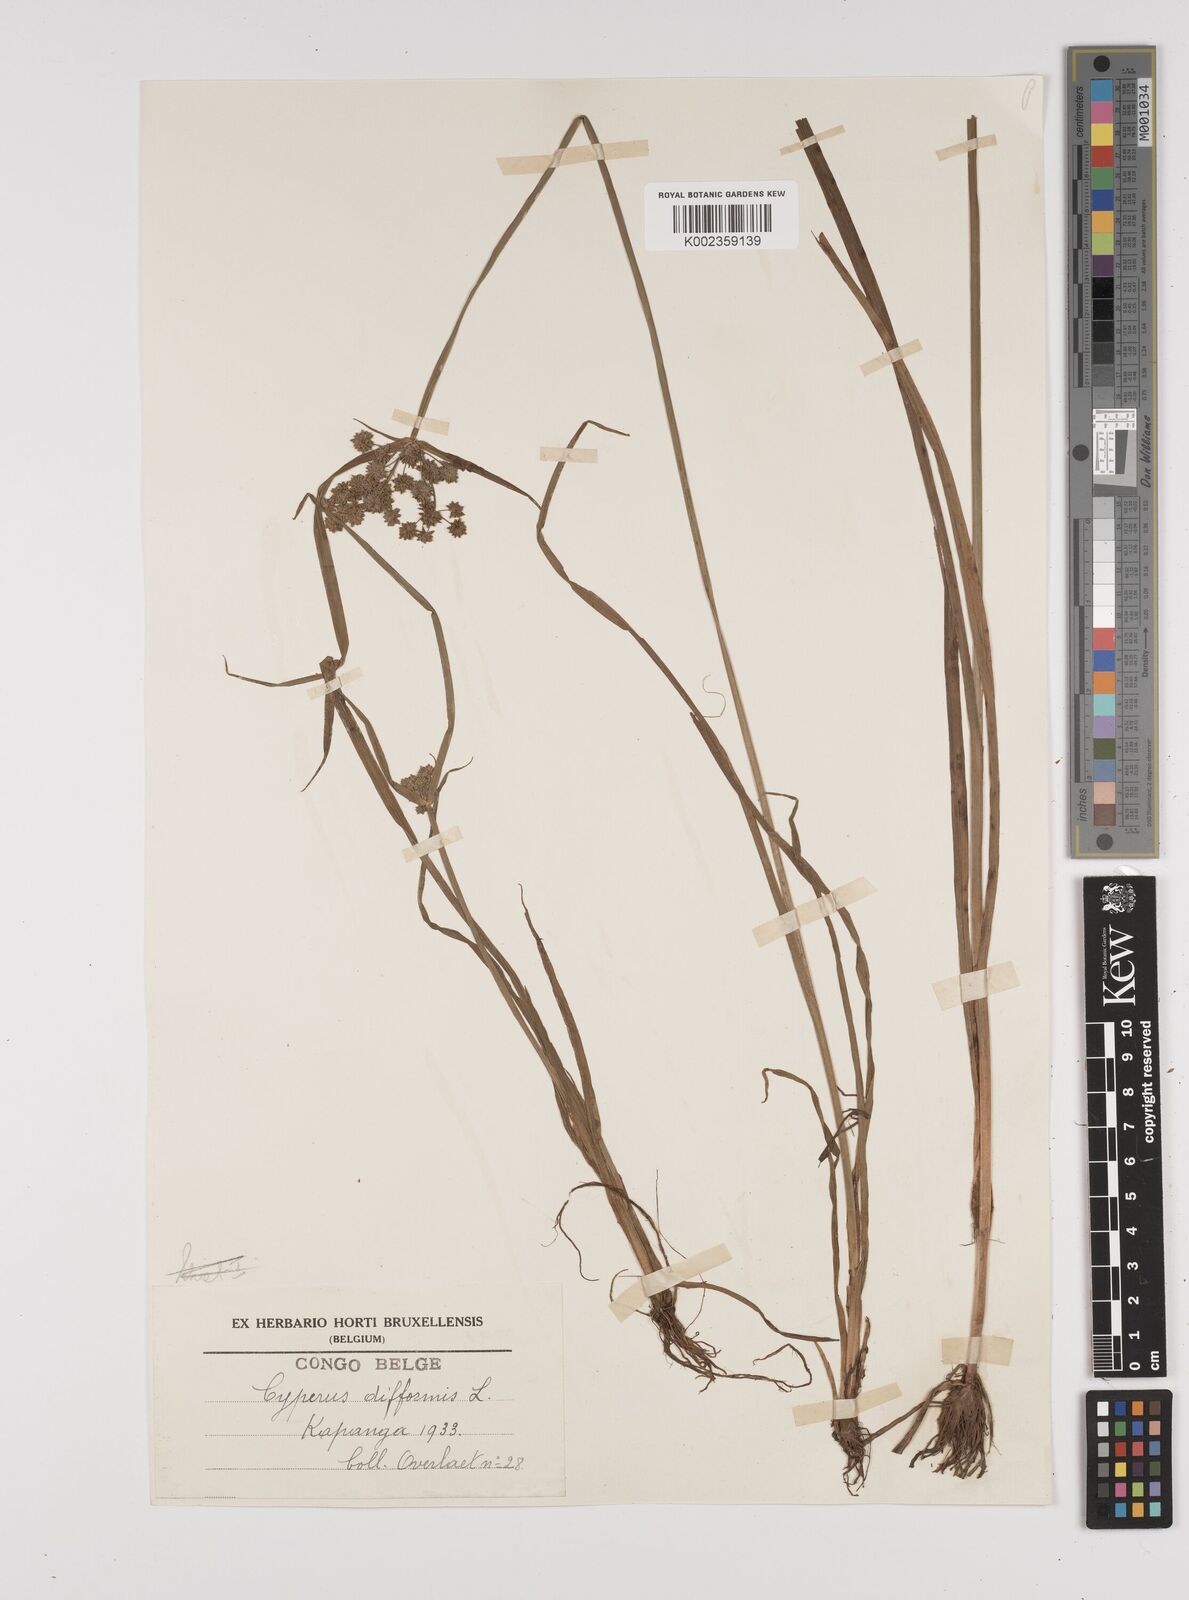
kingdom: Plantae
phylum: Tracheophyta
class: Liliopsida
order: Poales
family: Cyperaceae
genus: Cyperus
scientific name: Cyperus difformis
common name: Variable flatsedge
